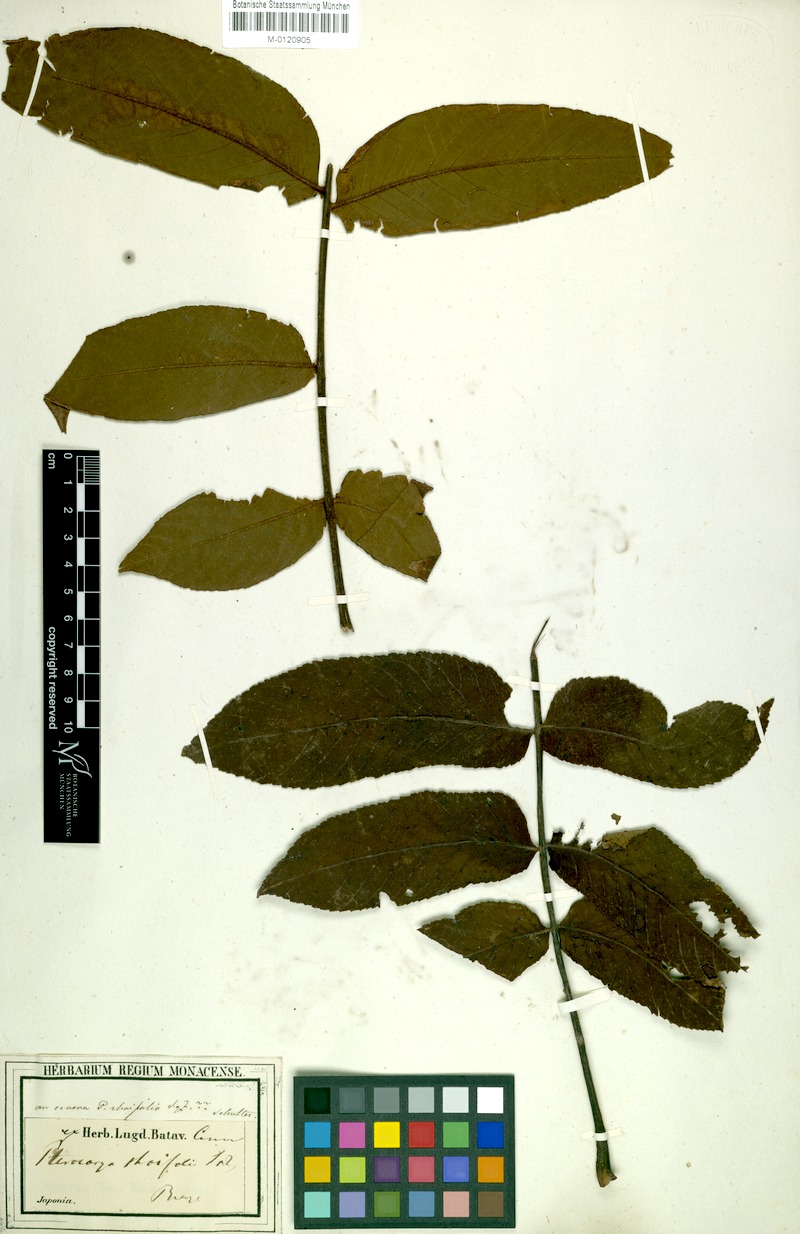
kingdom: Plantae
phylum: Tracheophyta
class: Magnoliopsida
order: Fagales
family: Juglandaceae
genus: Pterocarya
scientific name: Pterocarya rhoifolia
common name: Japanese wingnut
